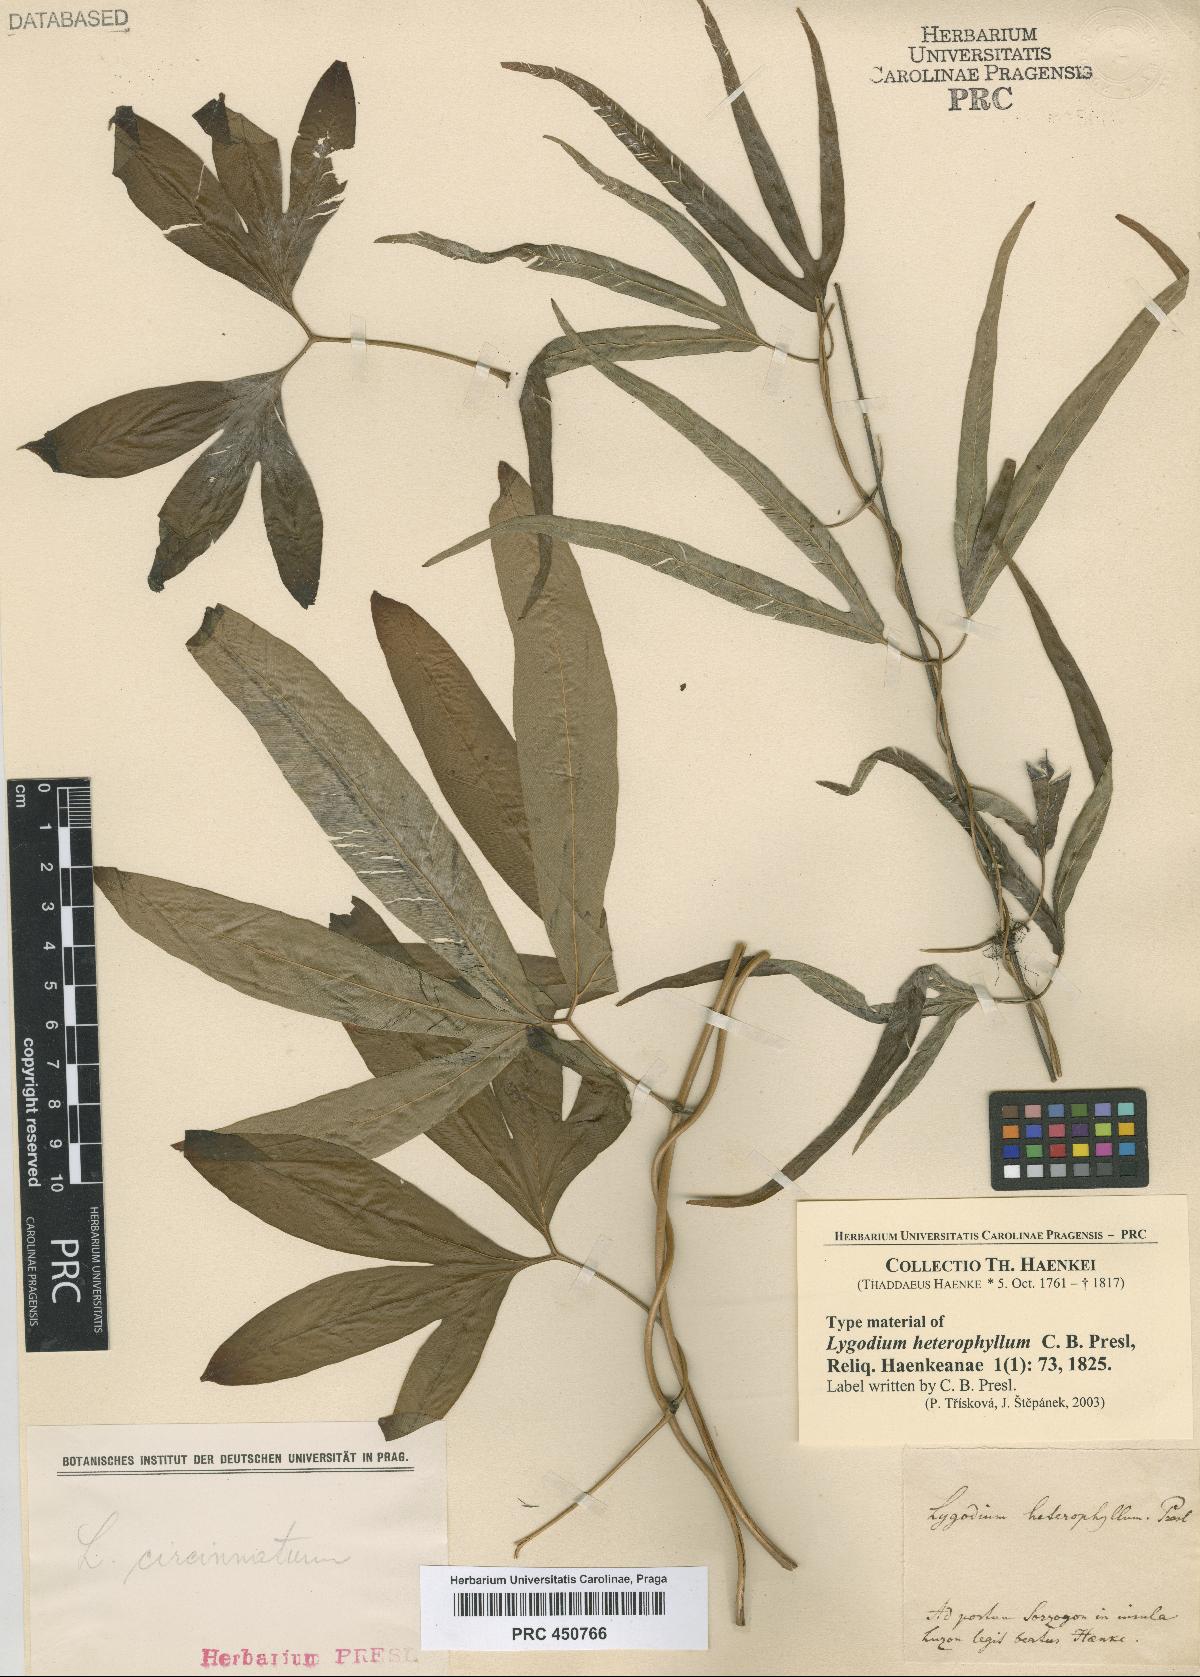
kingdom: Plantae
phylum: Tracheophyta
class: Polypodiopsida
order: Schizaeales
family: Lygodiaceae
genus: Lygodium
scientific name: Lygodium circinnatum
